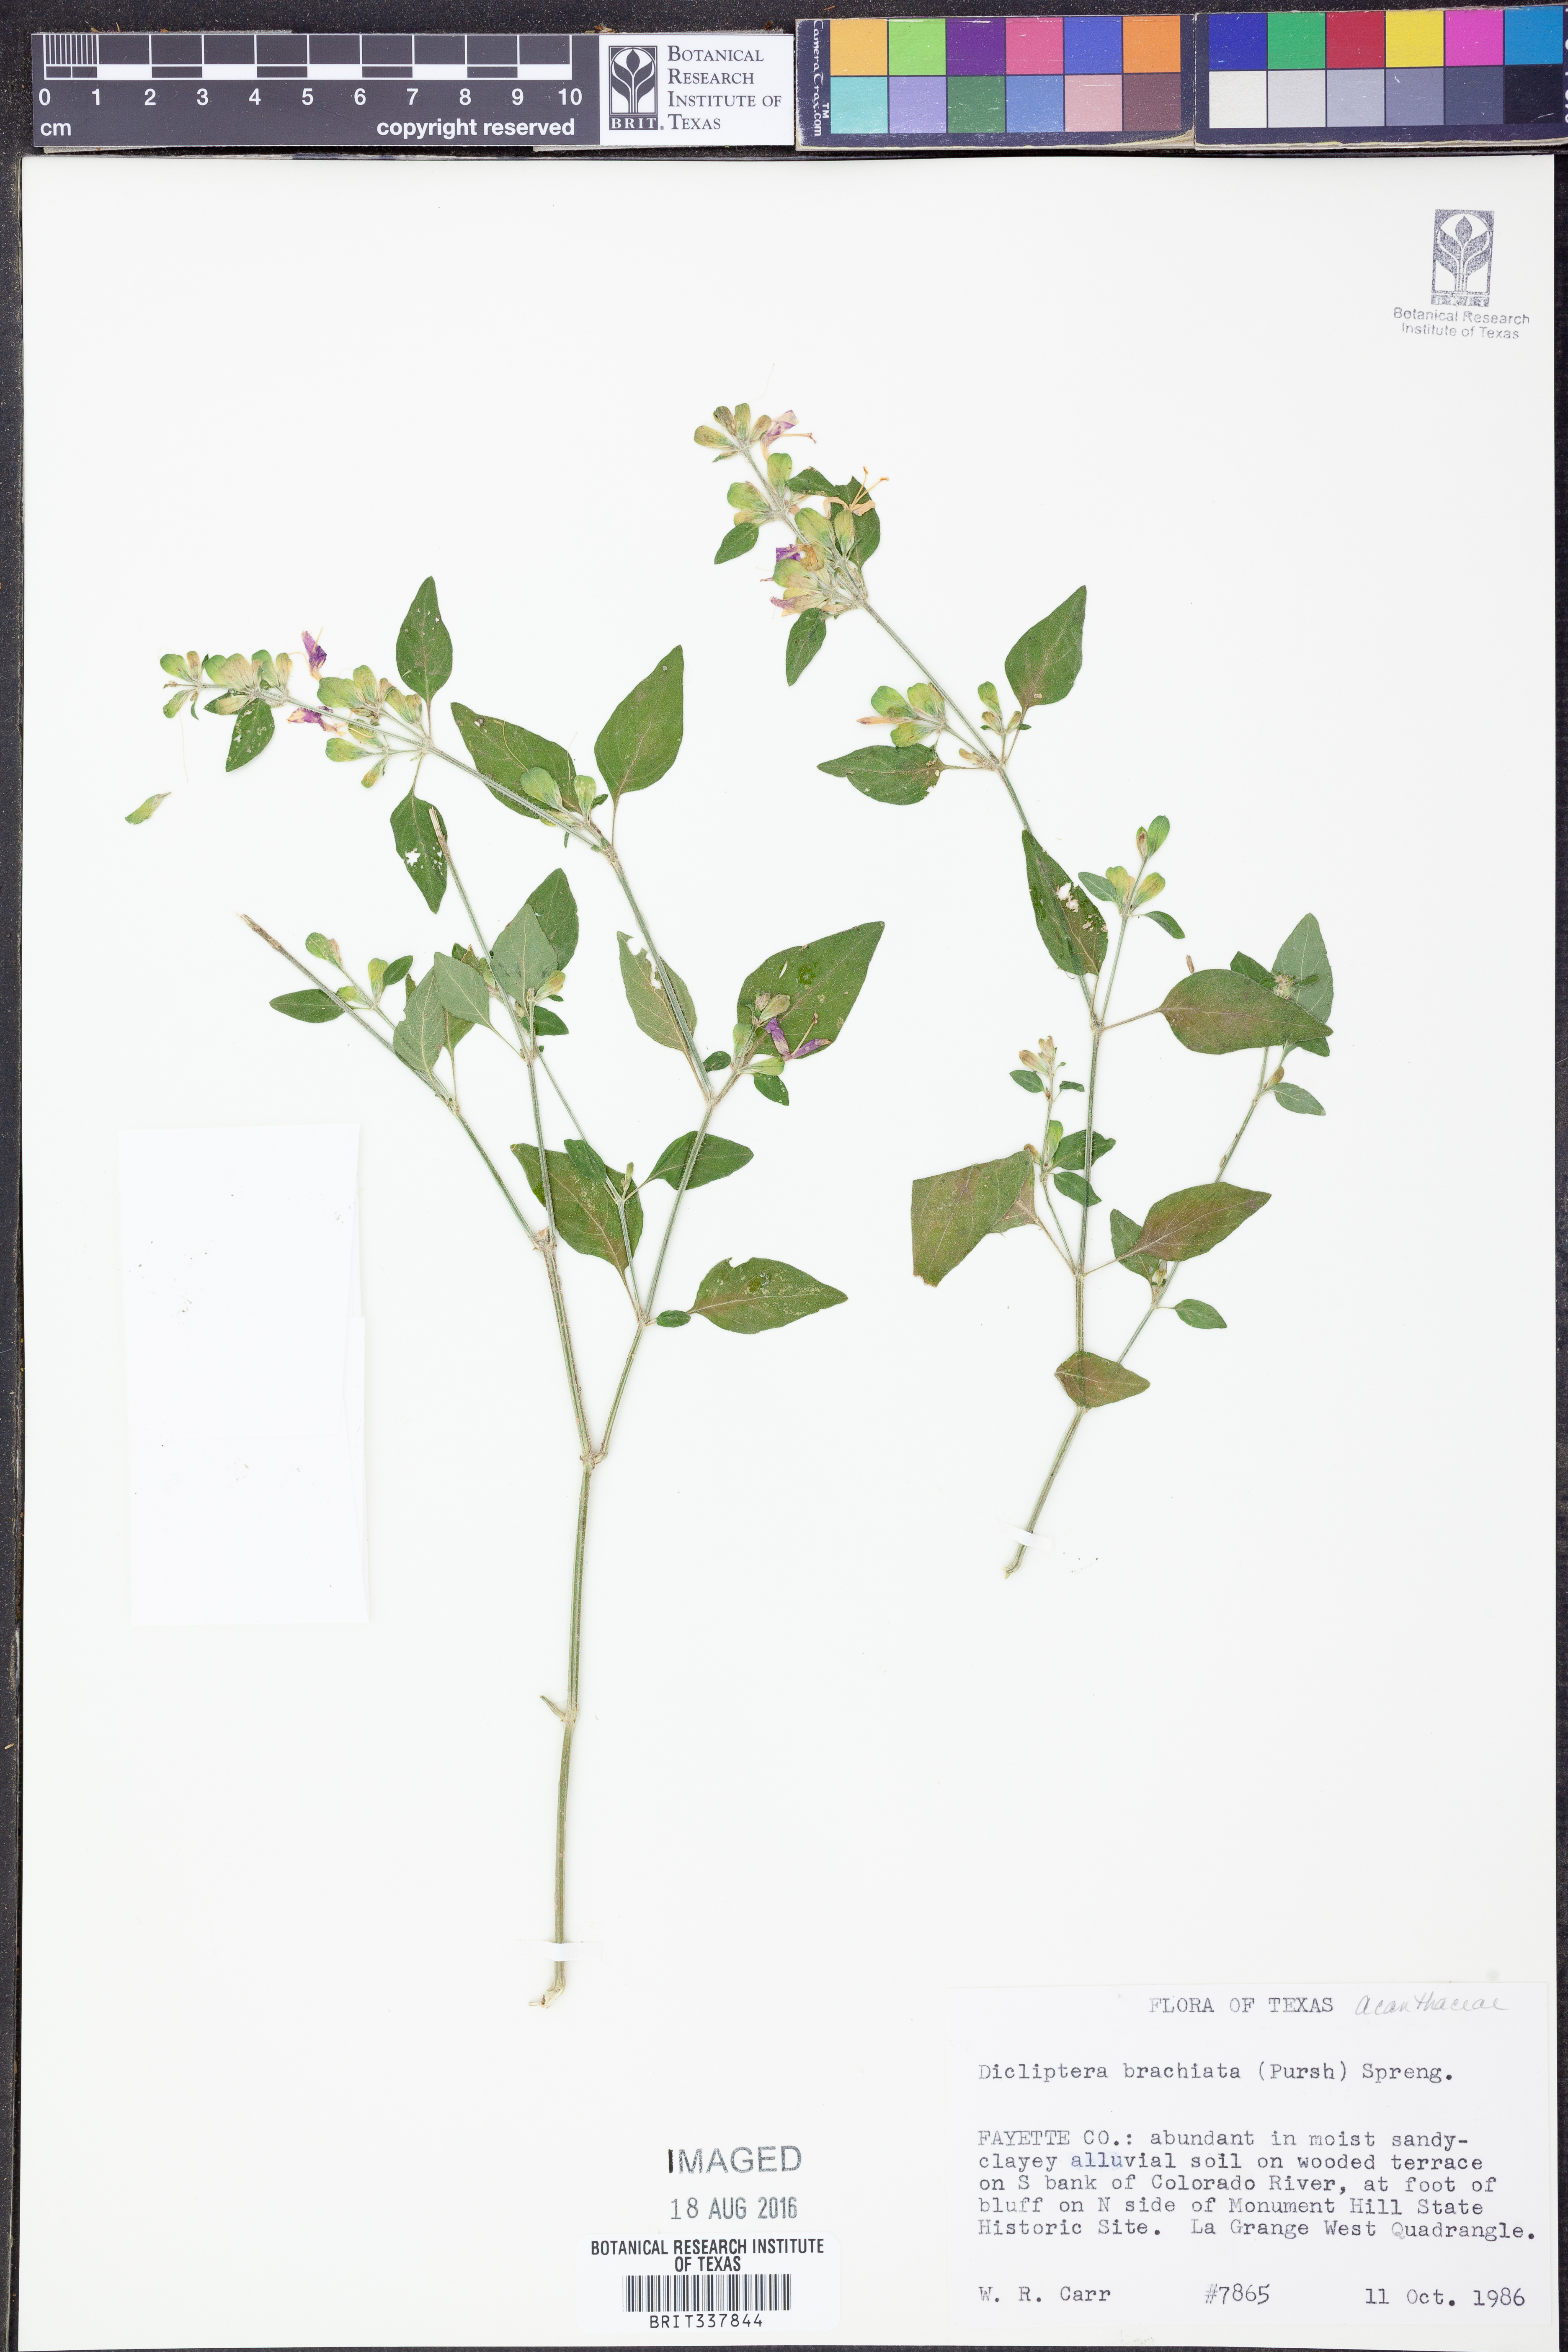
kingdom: Plantae
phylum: Tracheophyta
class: Magnoliopsida
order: Lamiales
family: Acanthaceae
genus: Dicliptera
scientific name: Dicliptera brachiata
